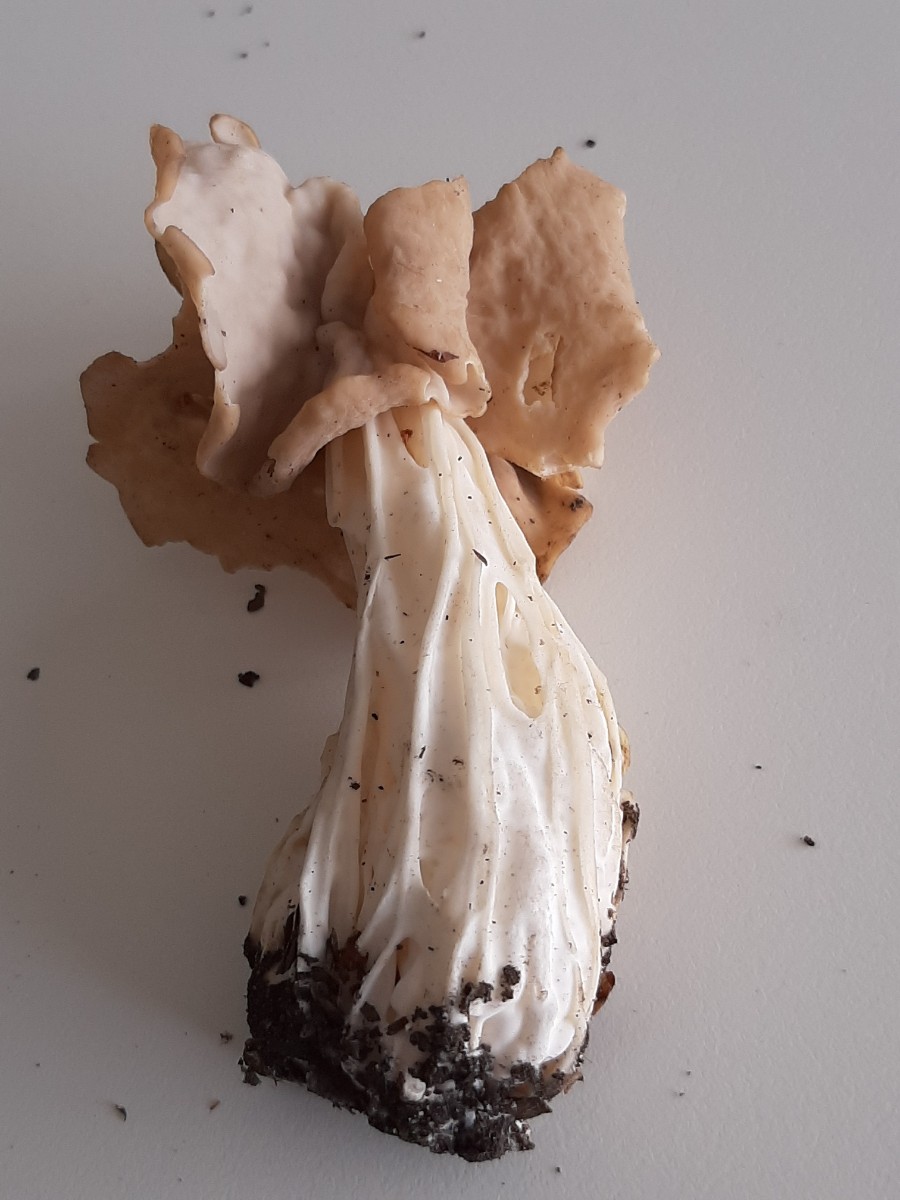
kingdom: Fungi
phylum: Ascomycota
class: Pezizomycetes
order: Pezizales
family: Helvellaceae
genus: Helvella
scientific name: Helvella crispa
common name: kruset foldhat
